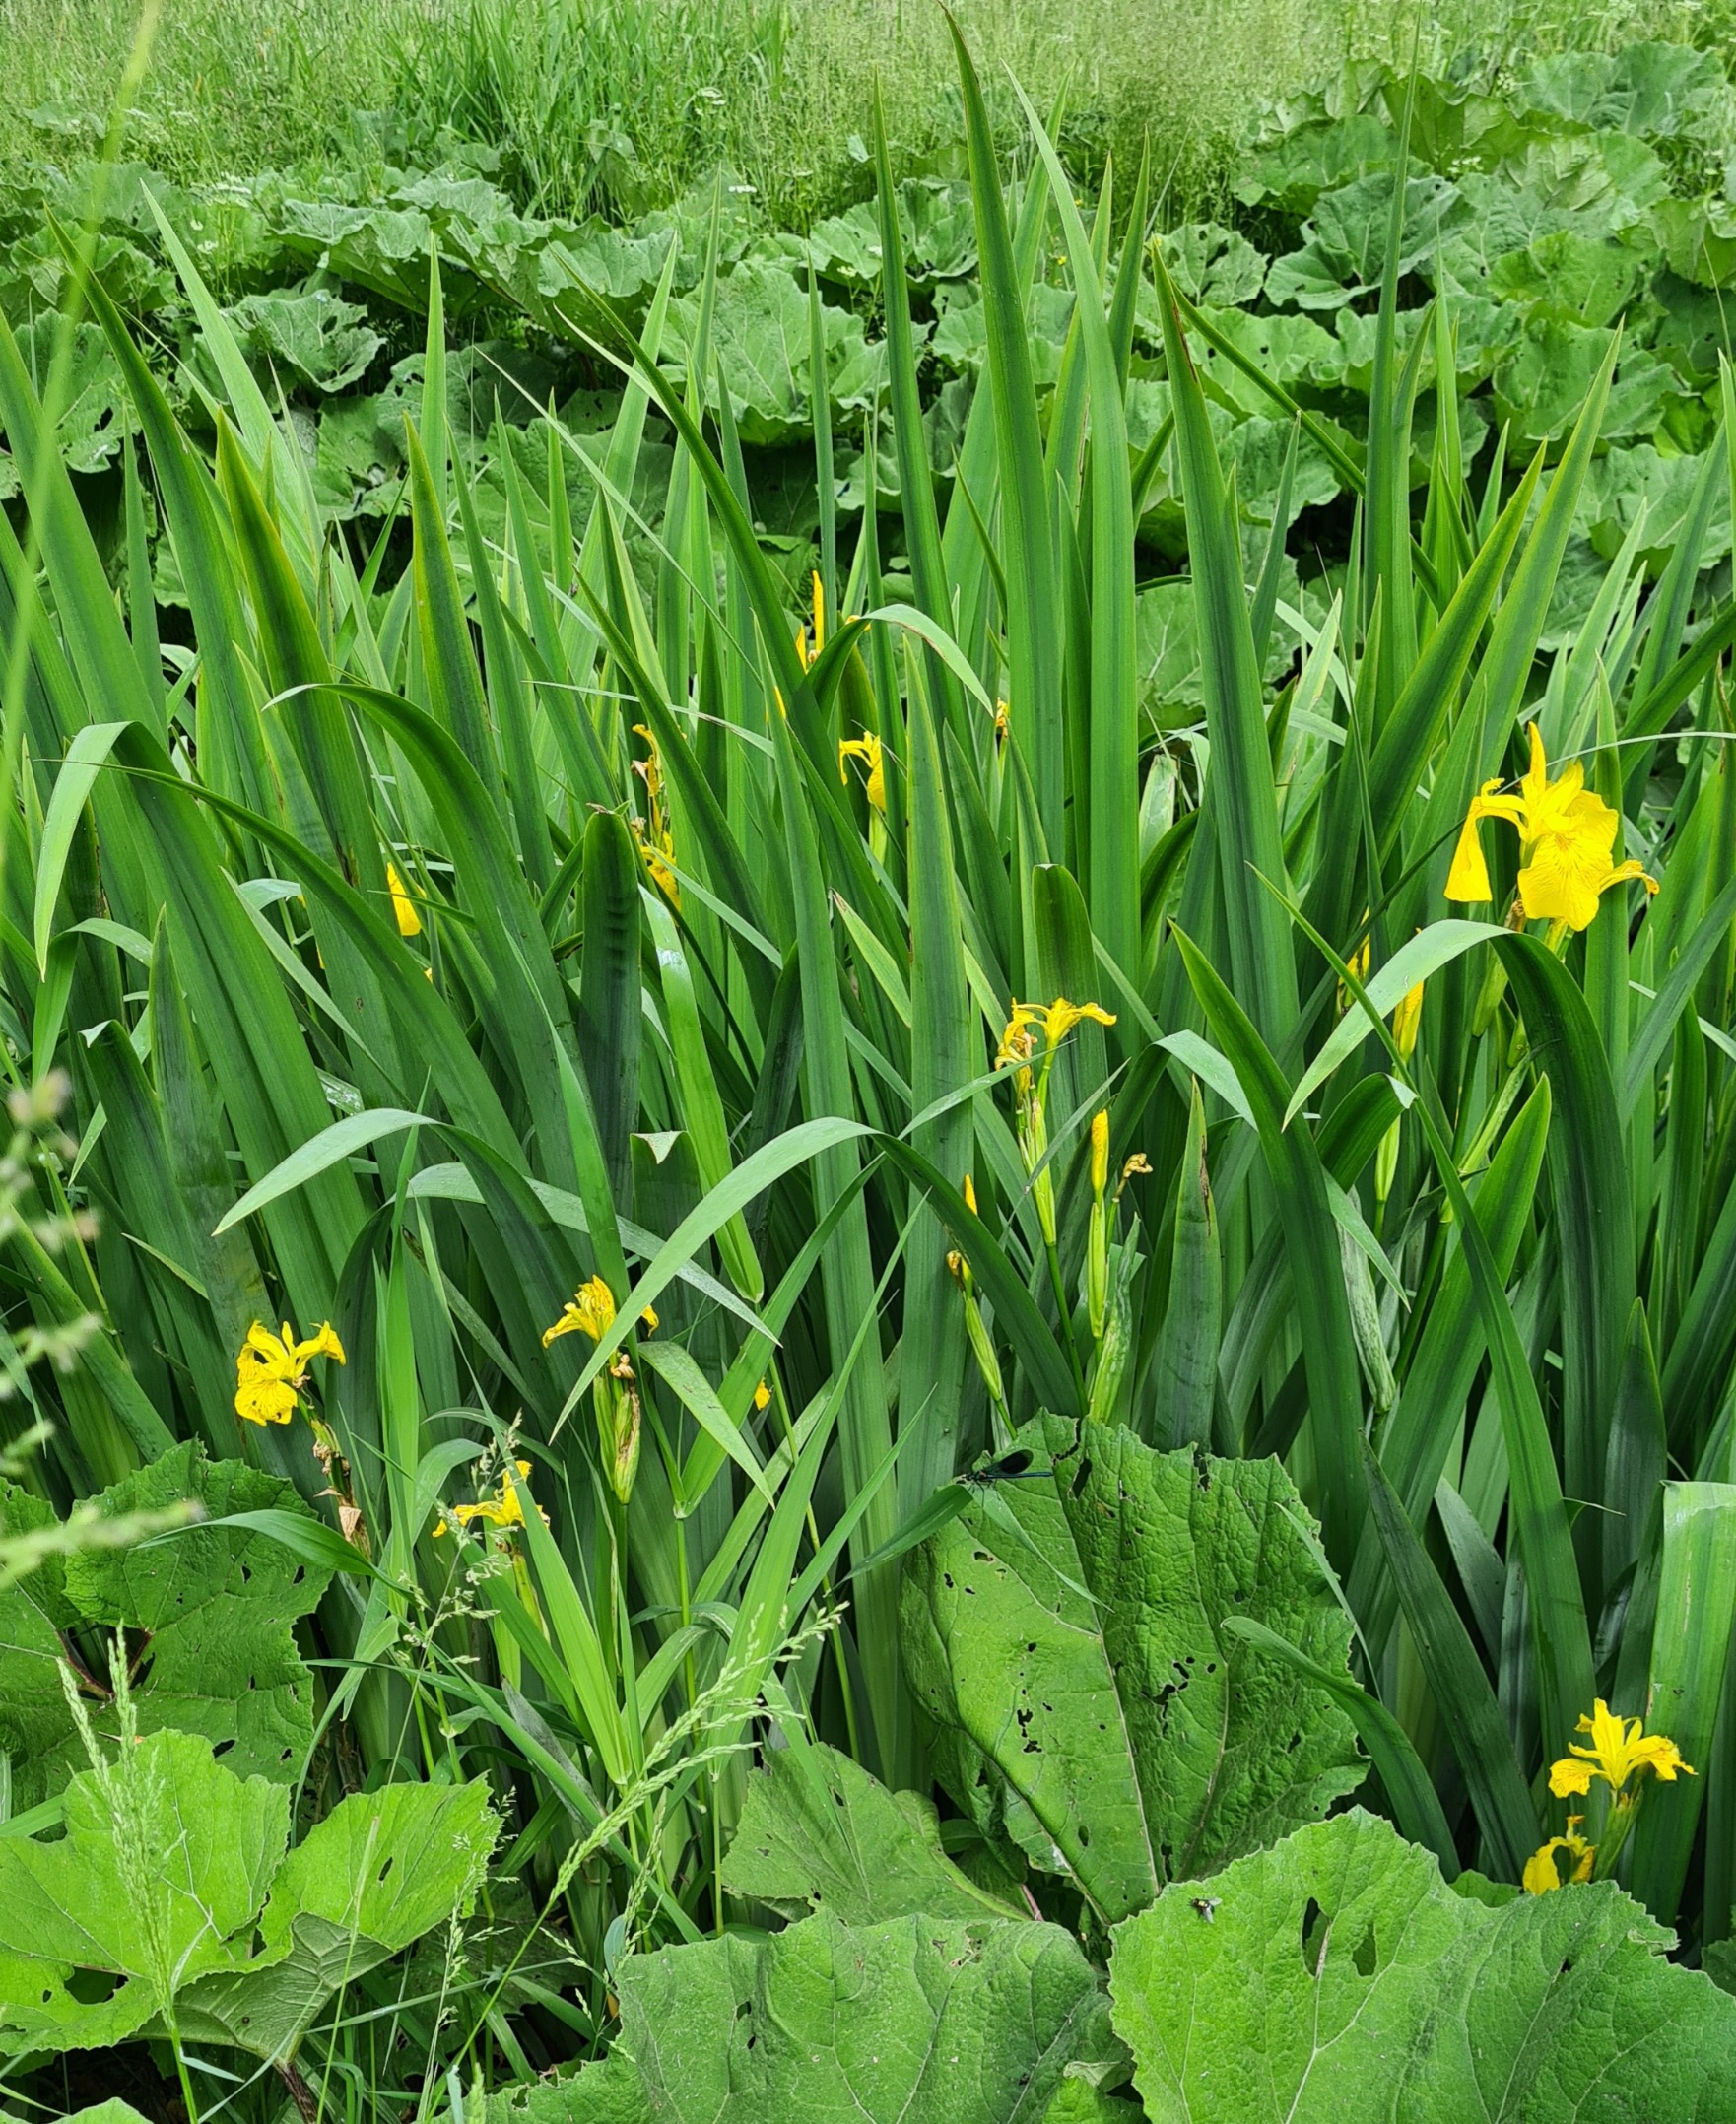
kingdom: Plantae
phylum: Tracheophyta
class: Liliopsida
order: Asparagales
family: Iridaceae
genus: Iris
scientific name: Iris pseudacorus
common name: Gul iris
